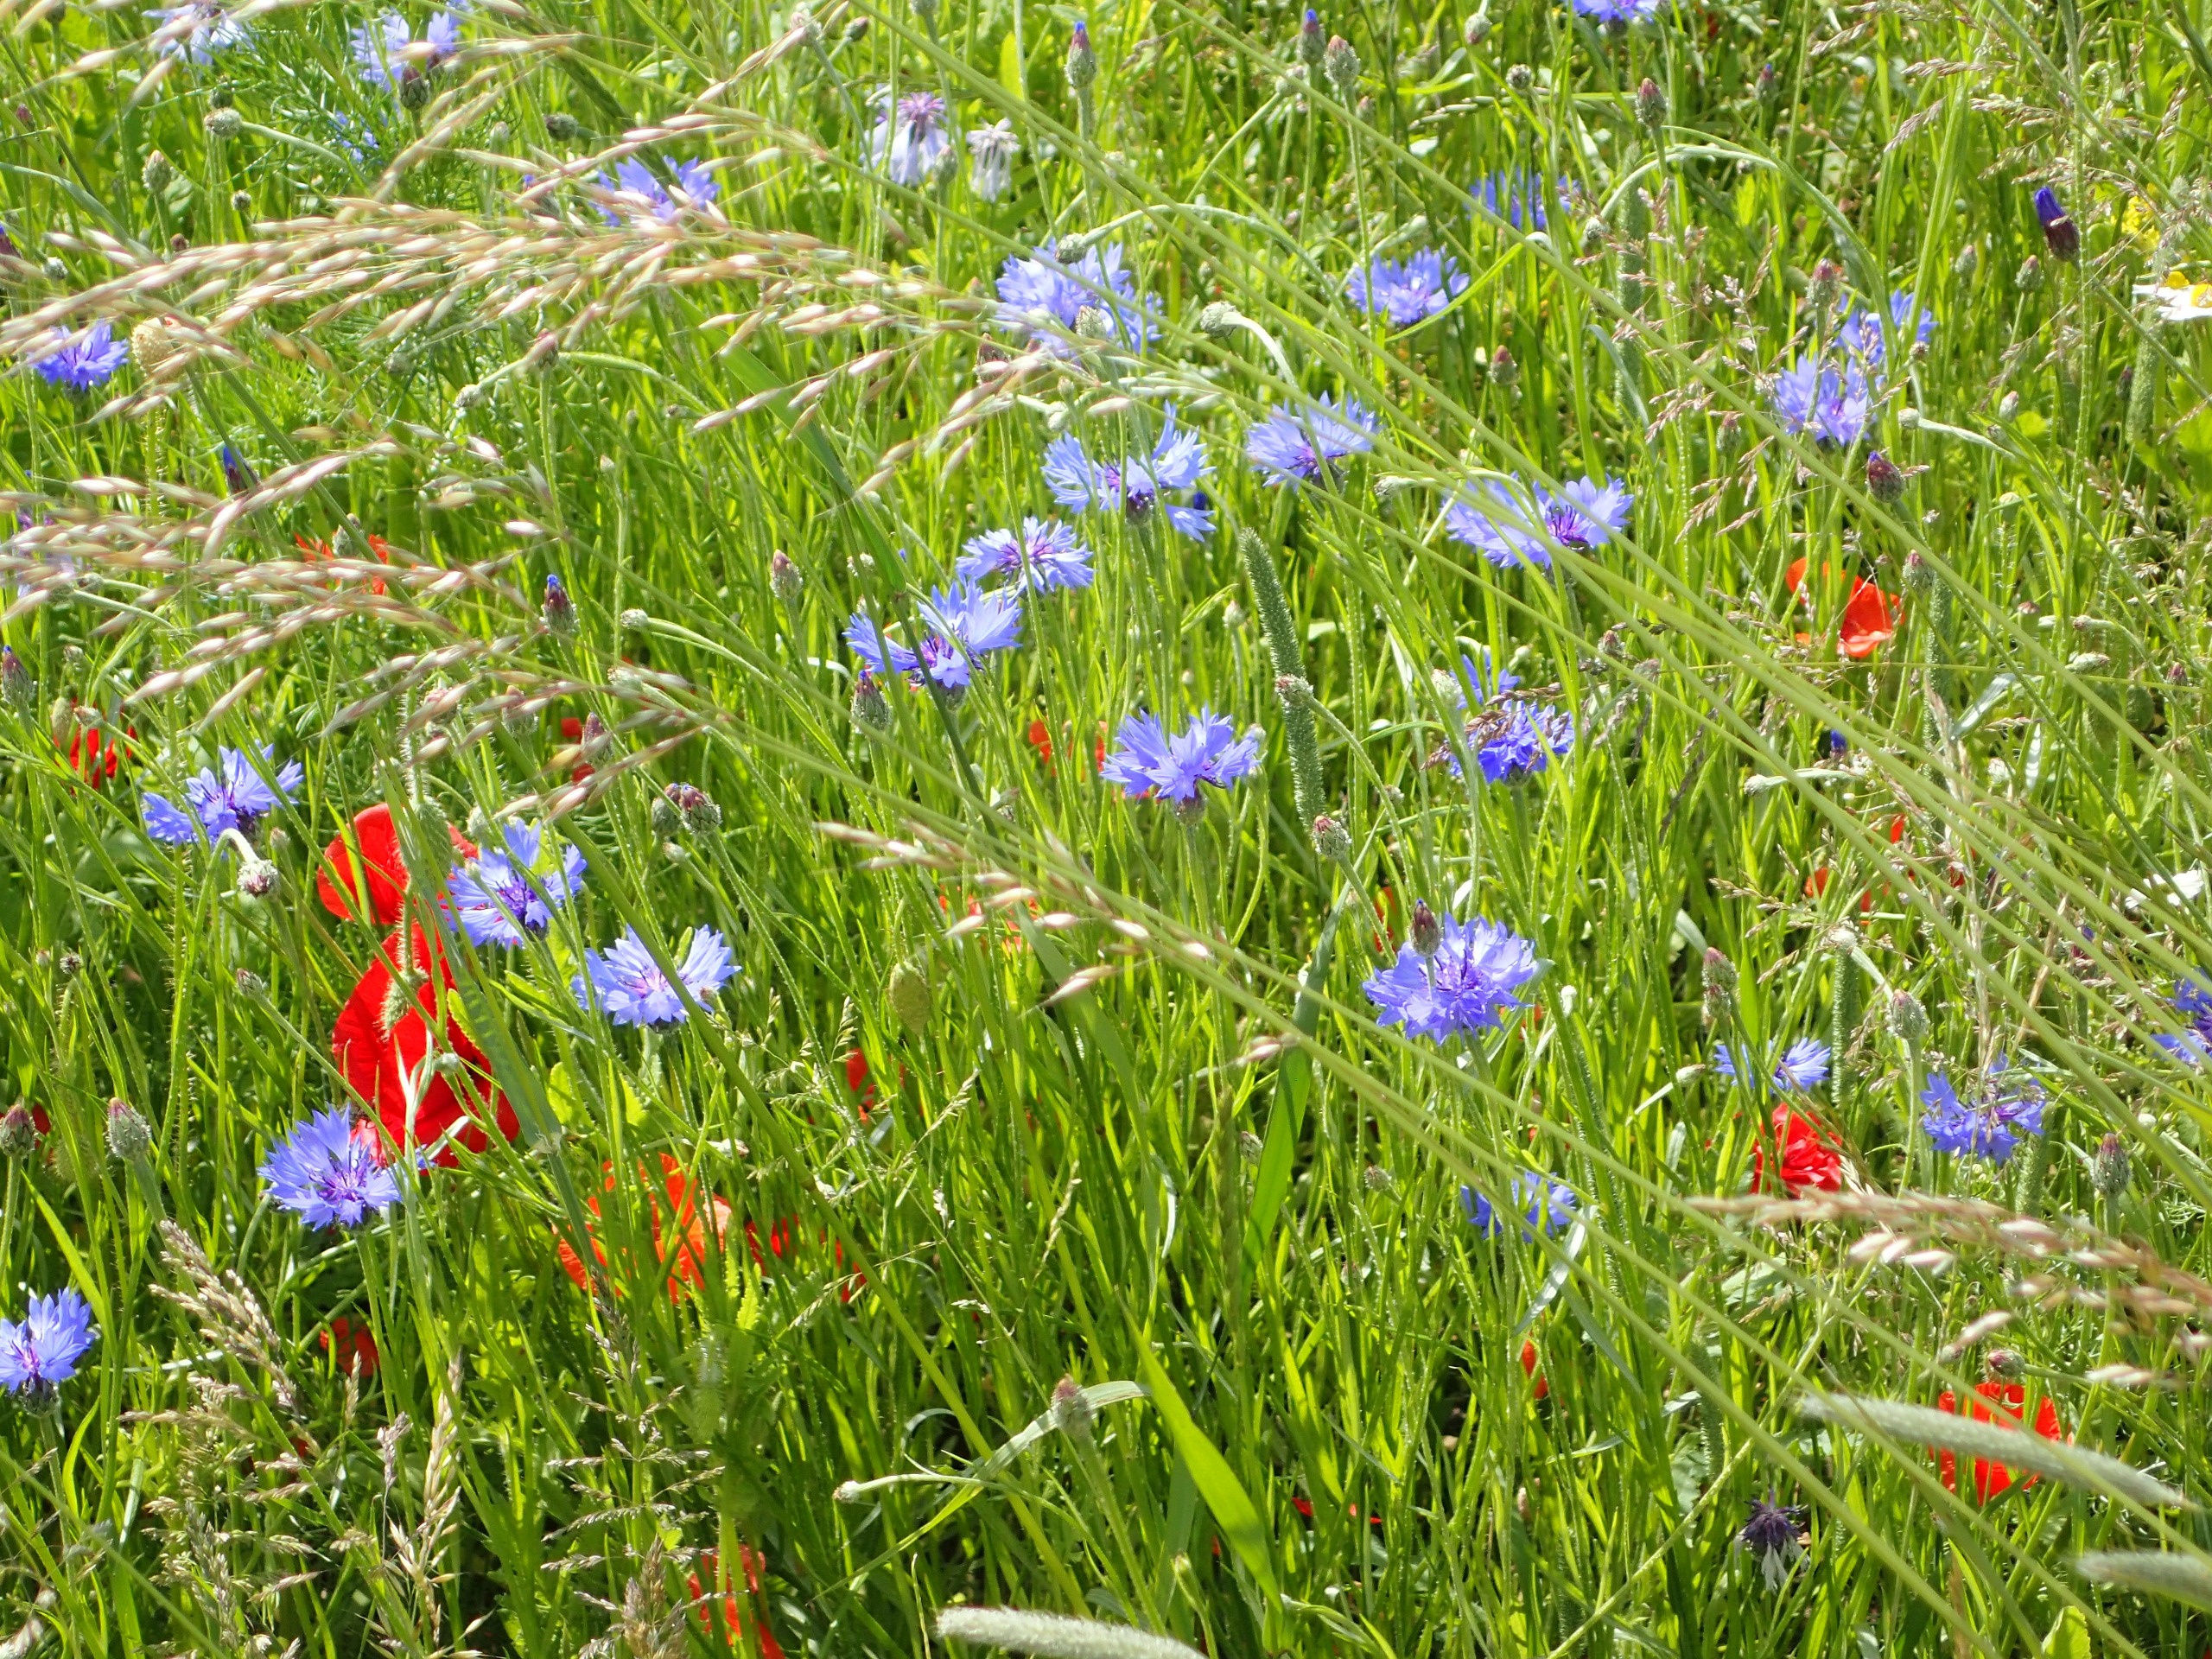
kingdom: Plantae
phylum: Tracheophyta
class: Magnoliopsida
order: Asterales
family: Asteraceae
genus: Centaurea
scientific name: Centaurea cyanus
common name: Kornblomst
